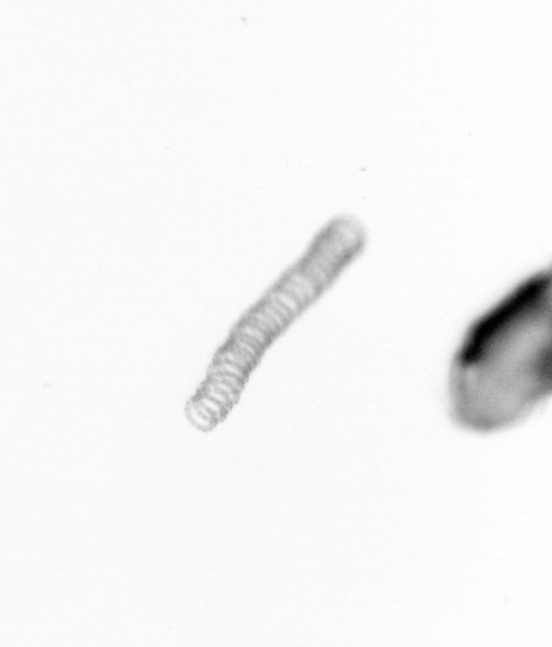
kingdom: Chromista
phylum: Ochrophyta
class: Bacillariophyceae
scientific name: Bacillariophyceae
